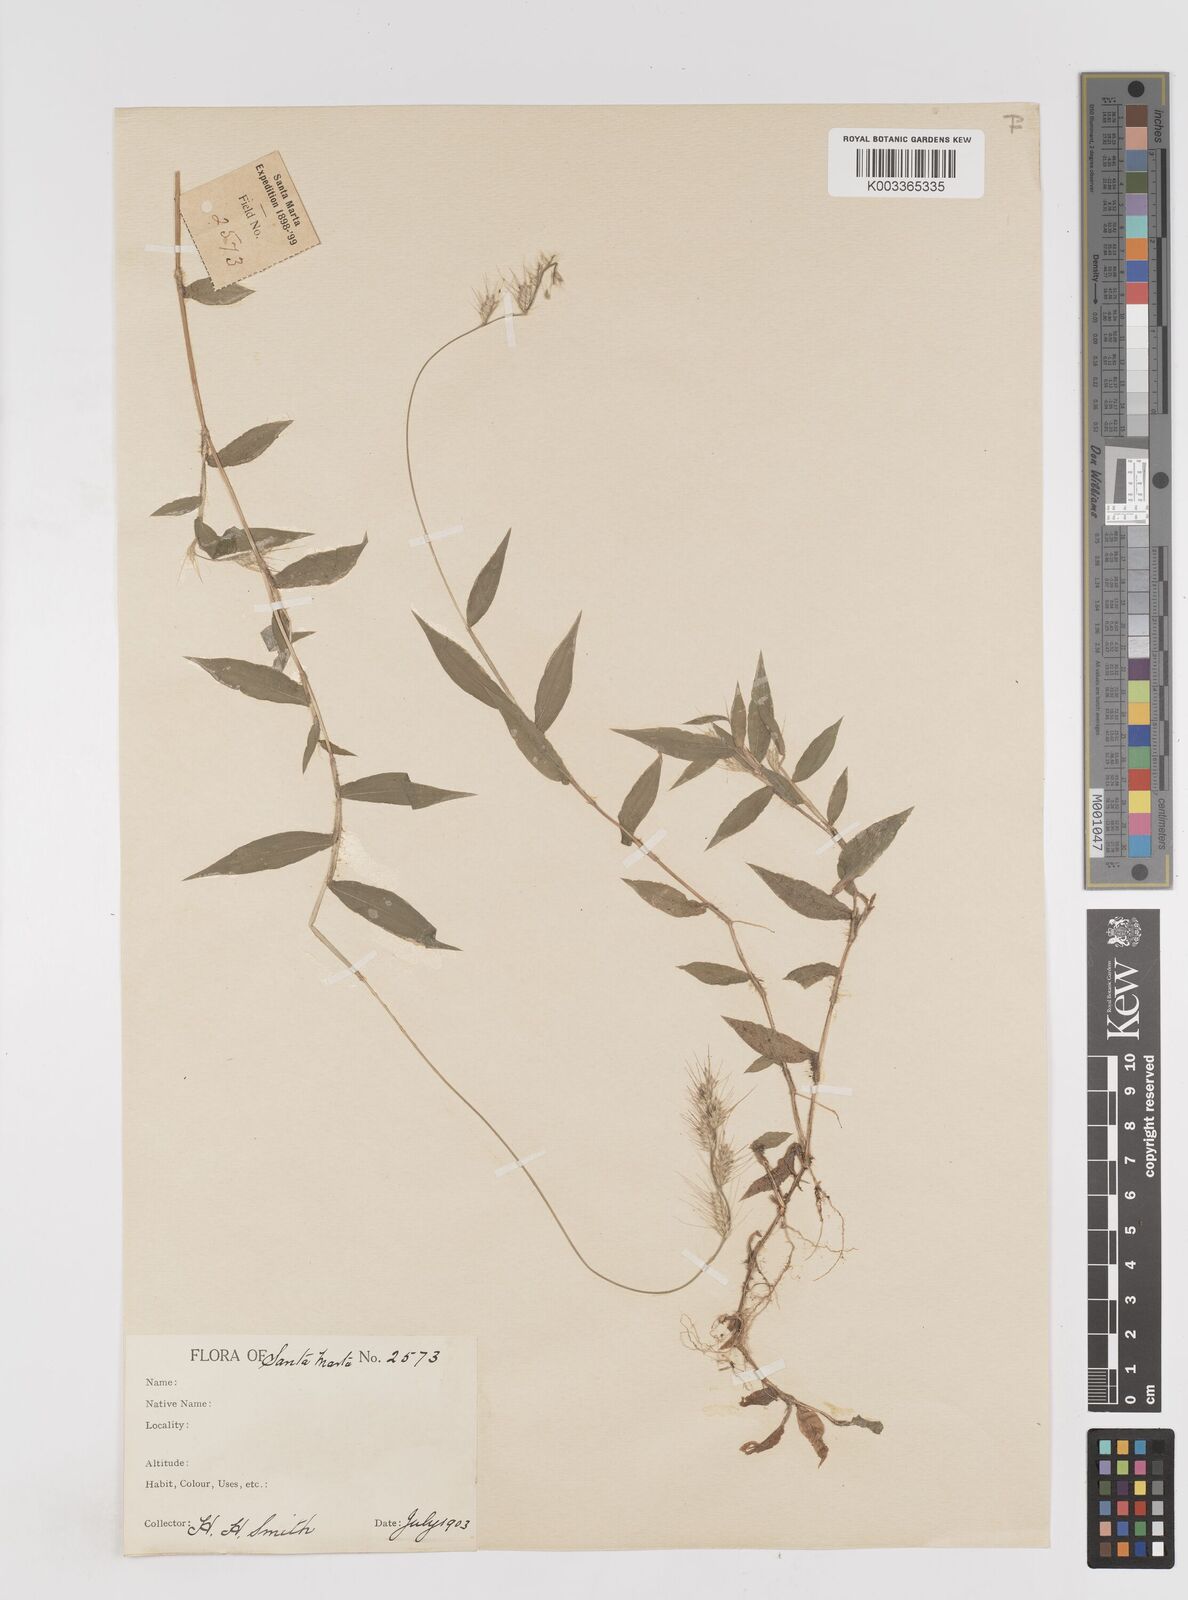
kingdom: Plantae
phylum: Tracheophyta
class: Liliopsida
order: Poales
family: Poaceae
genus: Oplismenus
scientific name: Oplismenus burmanni
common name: Burmann's basketgrass
